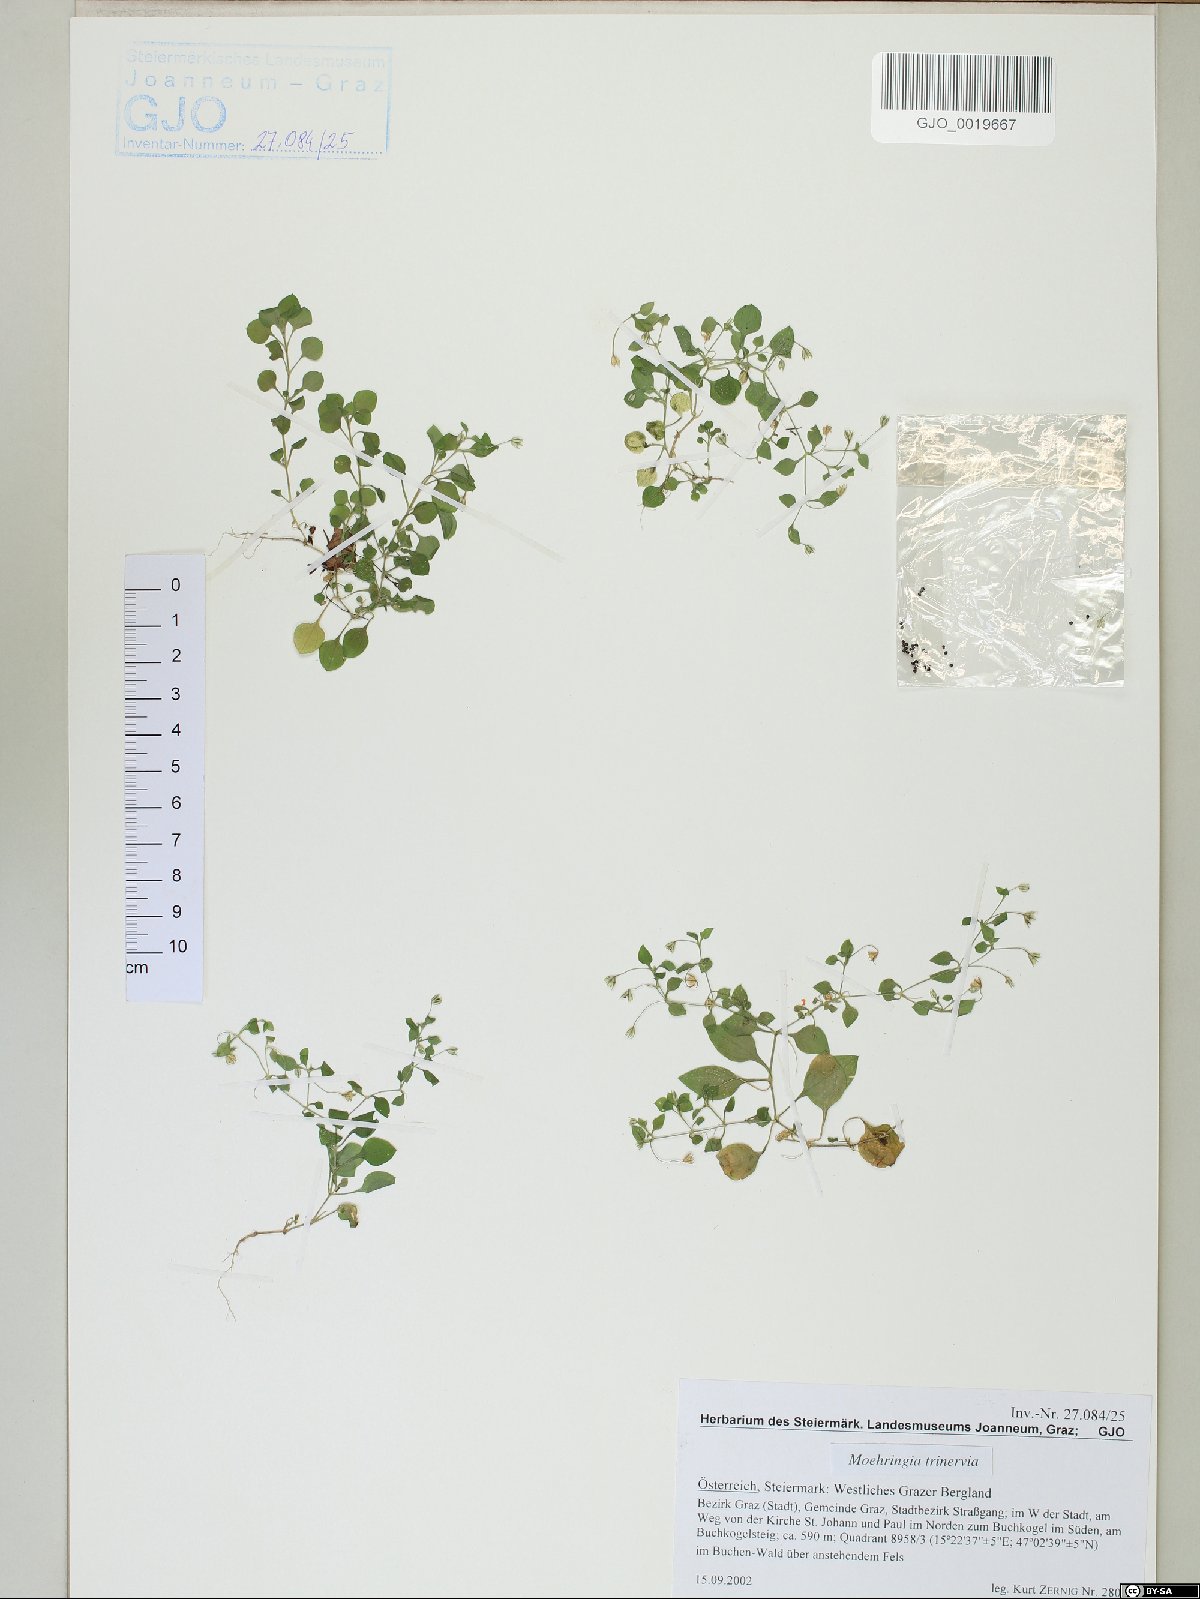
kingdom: Plantae
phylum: Tracheophyta
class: Magnoliopsida
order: Caryophyllales
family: Caryophyllaceae
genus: Moehringia
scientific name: Moehringia trinervia
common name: Three-nerved sandwort
